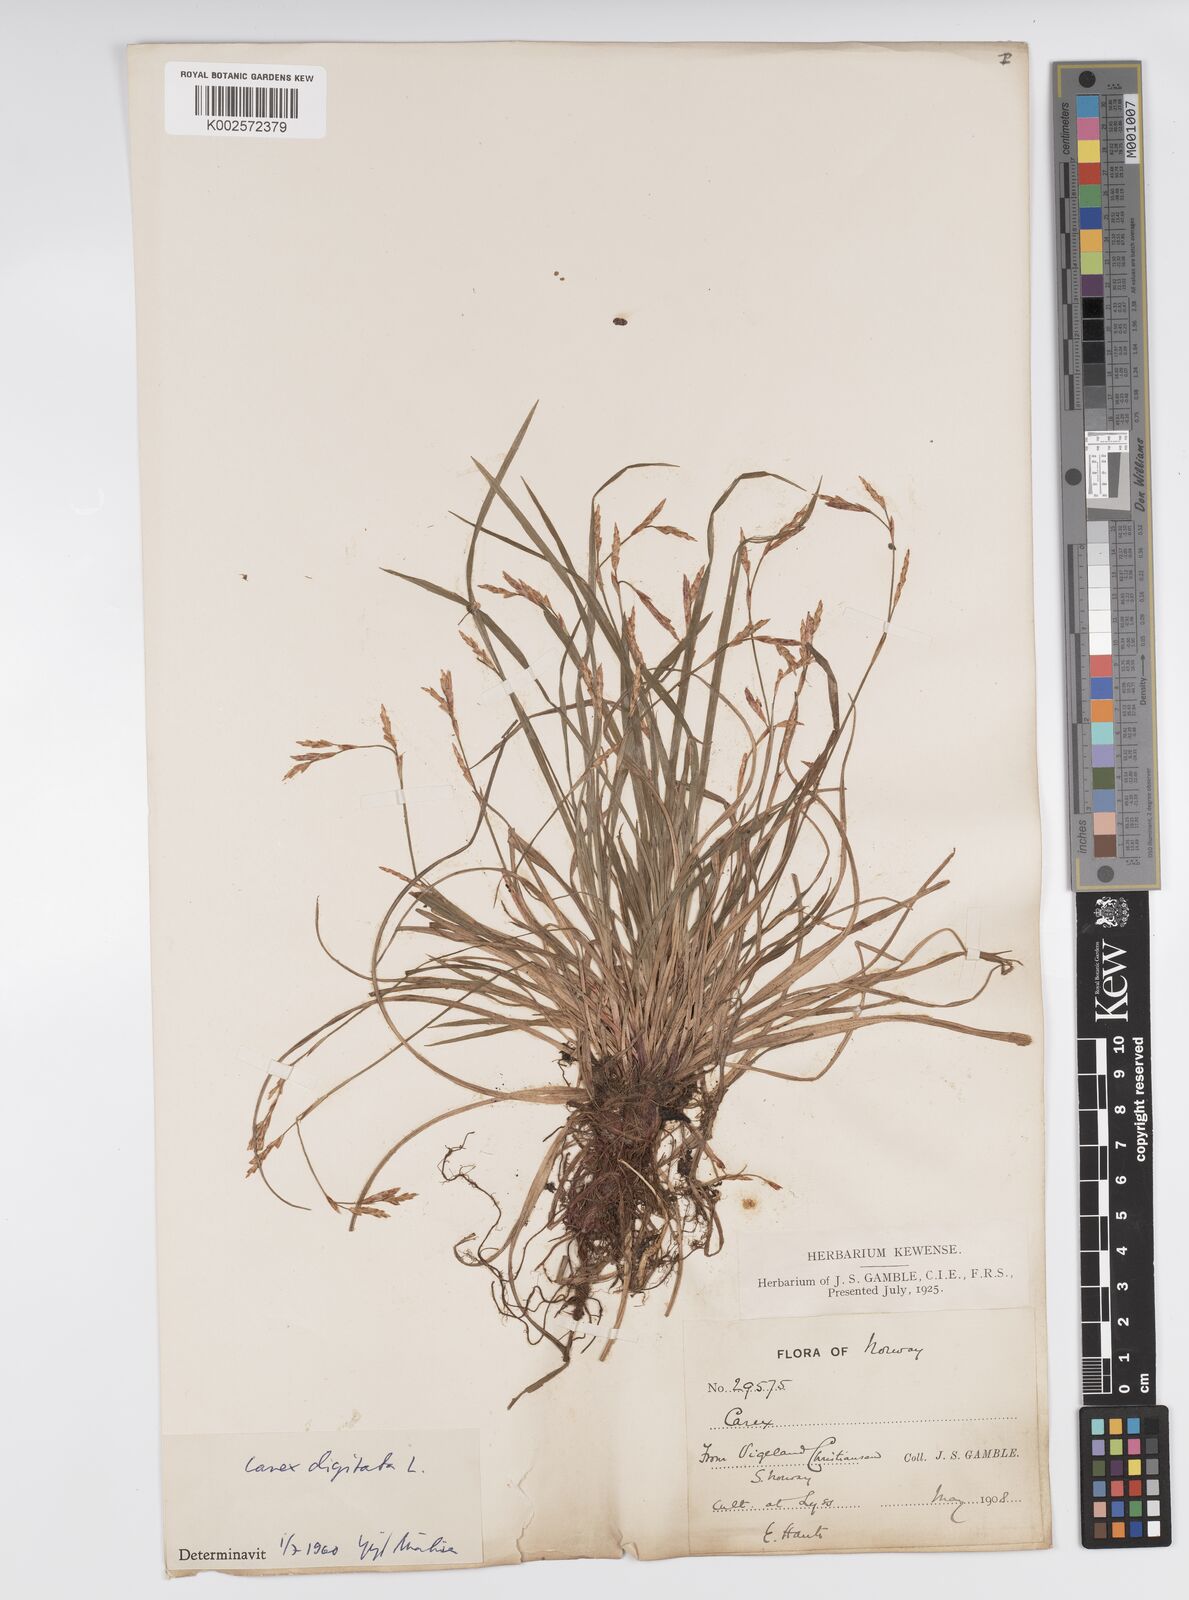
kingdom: Plantae
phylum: Tracheophyta
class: Liliopsida
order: Poales
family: Cyperaceae
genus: Carex
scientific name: Carex digitata
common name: Fingered sedge
